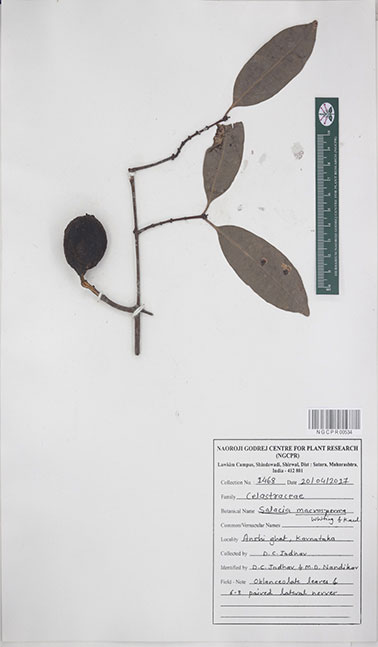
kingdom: Plantae
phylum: Tracheophyta
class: Magnoliopsida
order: Celastrales
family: Celastraceae
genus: Salacia
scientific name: Salacia gambleana
